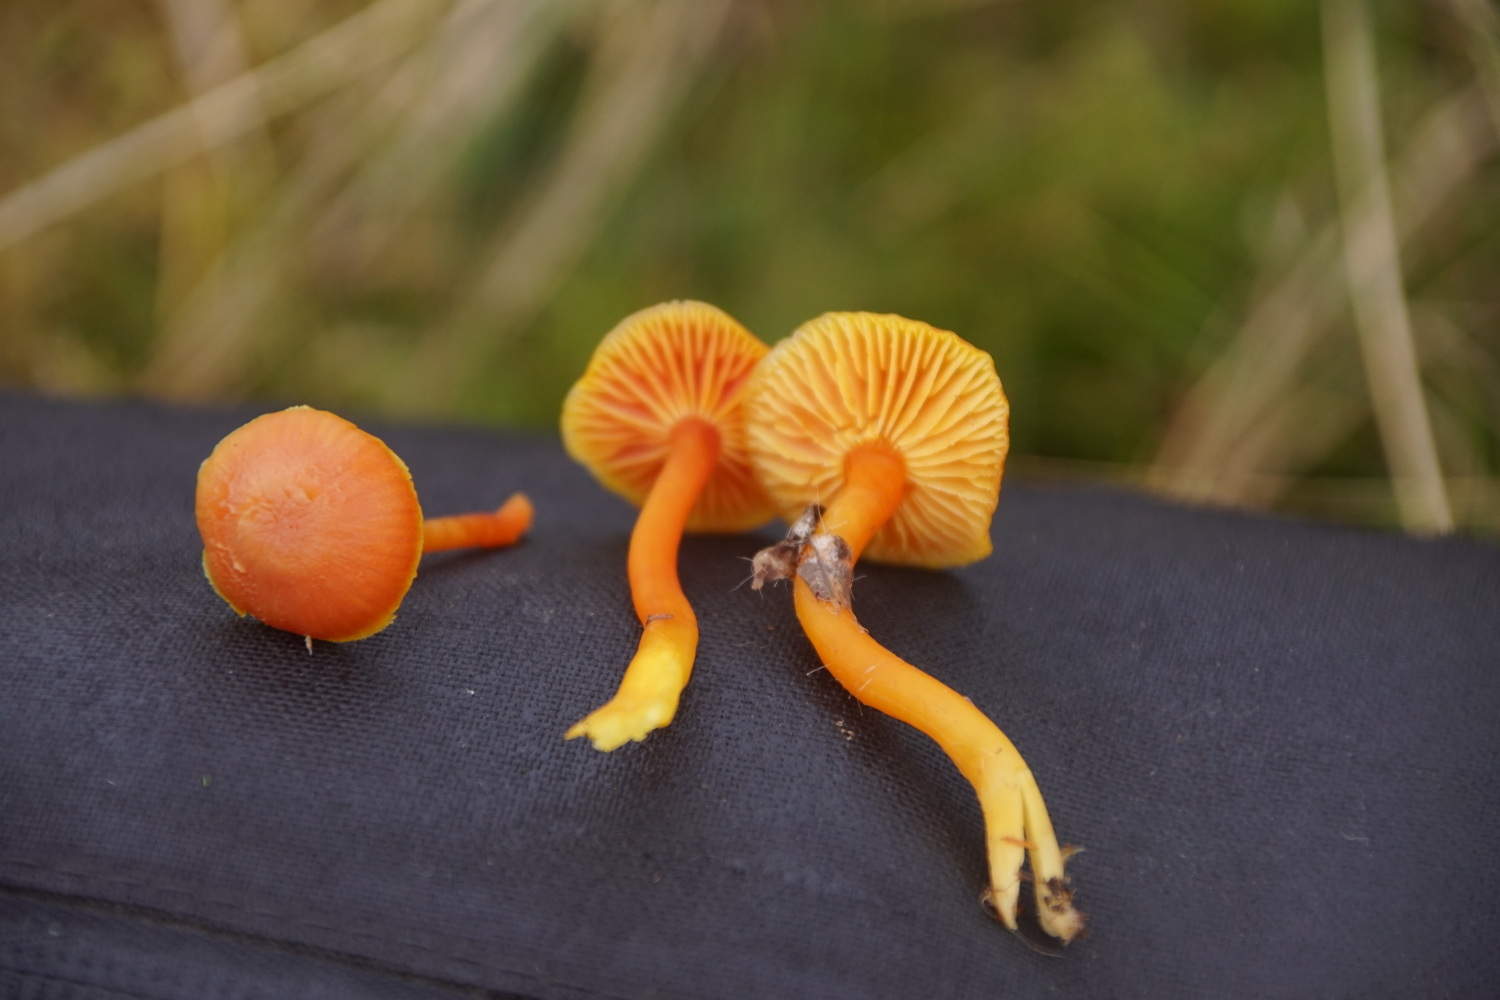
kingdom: Fungi
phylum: Basidiomycota
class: Agaricomycetes
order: Agaricales
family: Hygrophoraceae
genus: Hygrocybe
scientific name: Hygrocybe miniata
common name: mønje-vokshat
